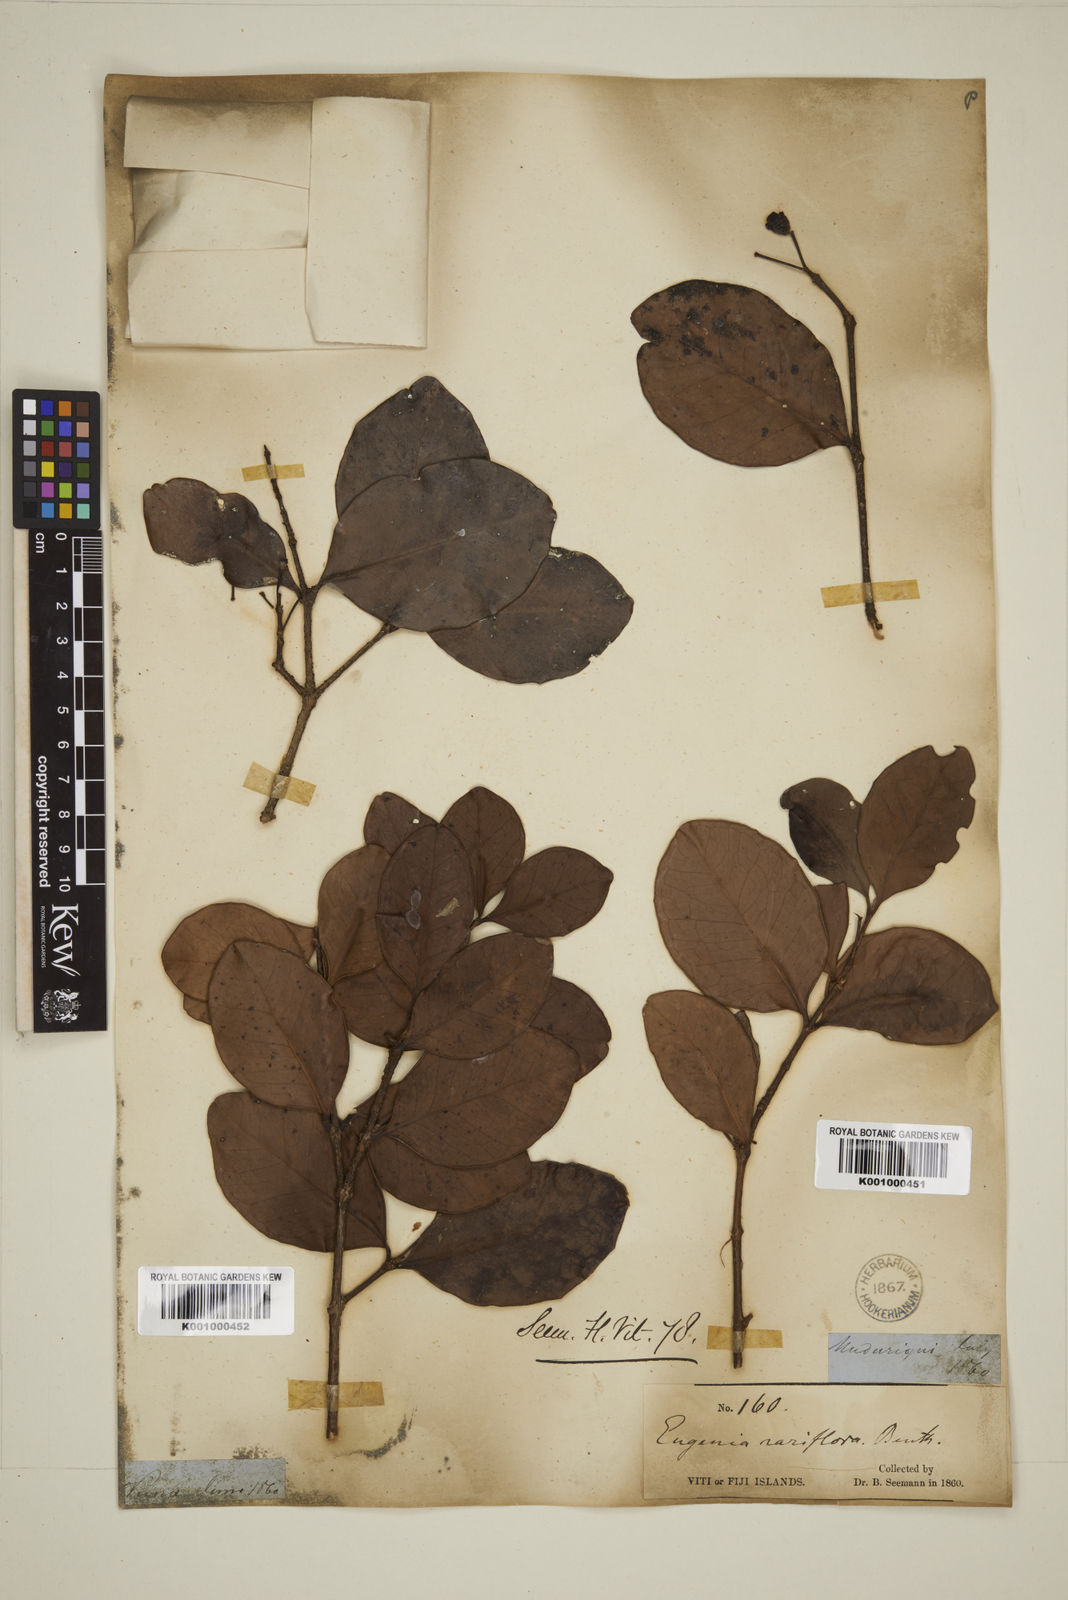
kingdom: Plantae
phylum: Tracheophyta
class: Magnoliopsida
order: Myrtales
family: Myrtaceae
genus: Eugenia
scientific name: Eugenia reinwardtiana
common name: Cedar bay-cherry
